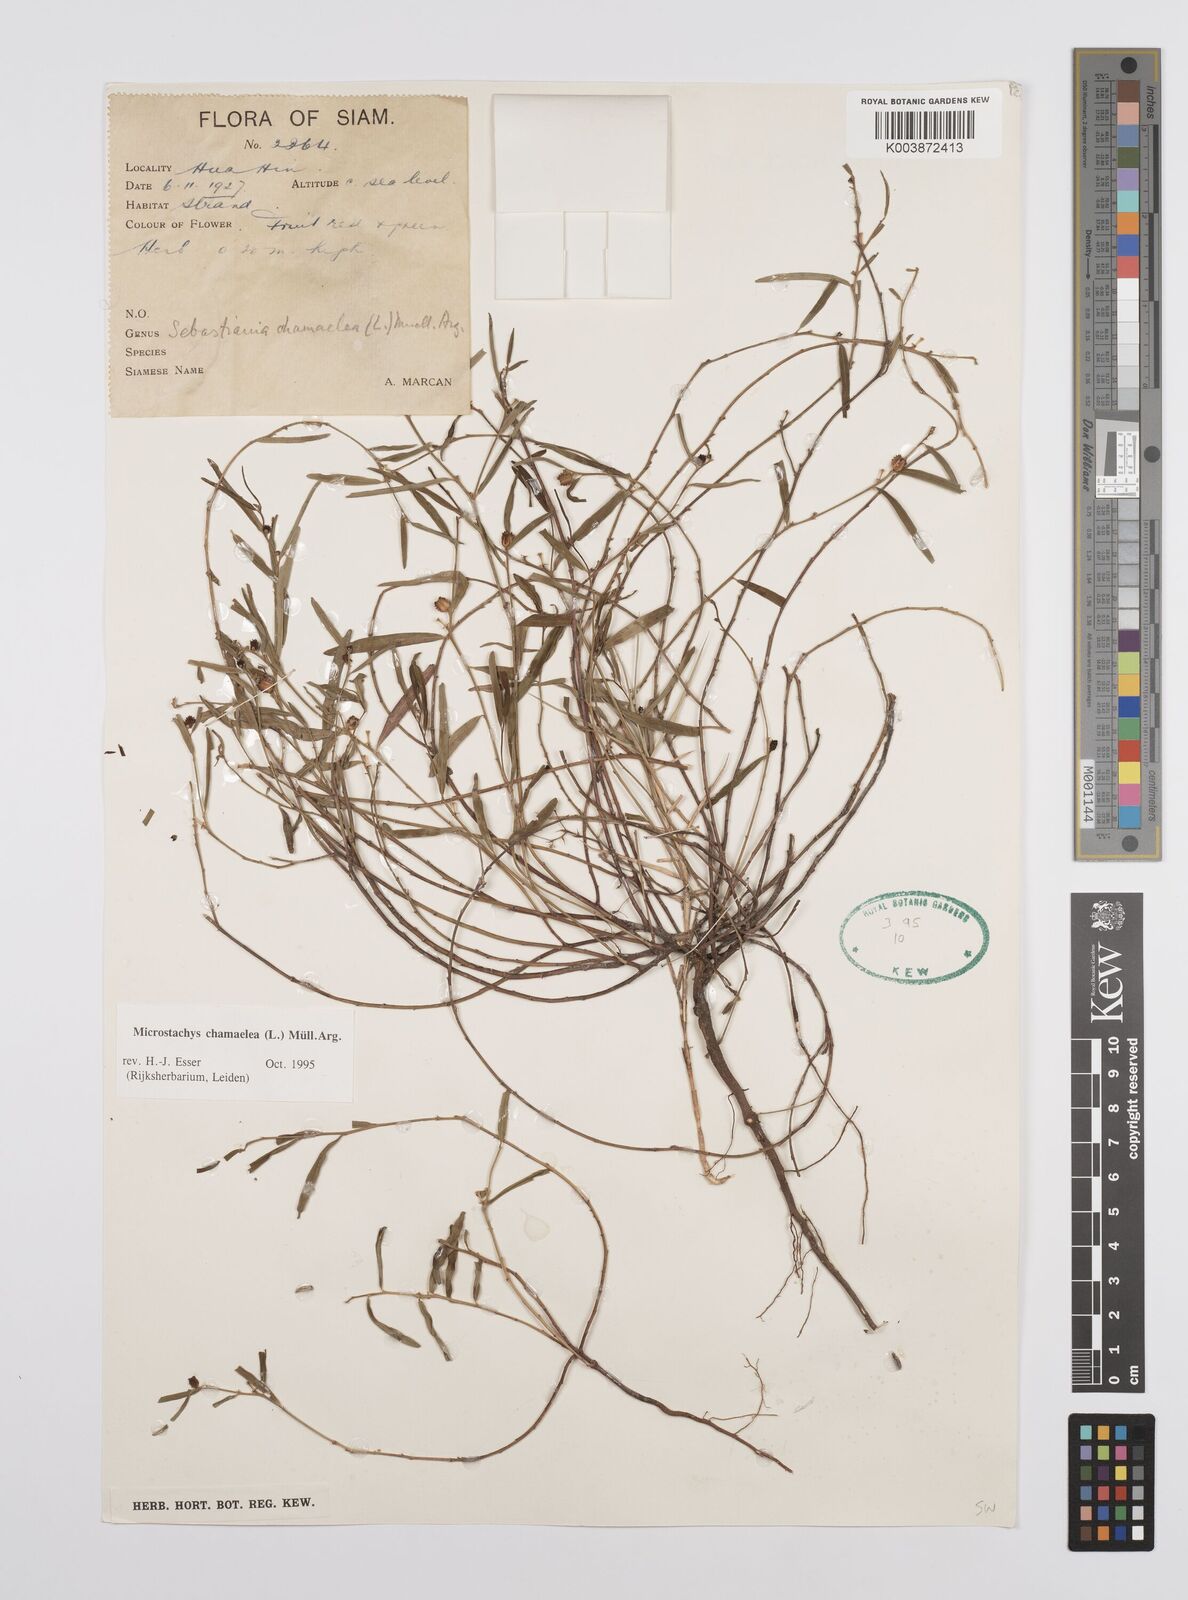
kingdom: Plantae
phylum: Tracheophyta
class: Magnoliopsida
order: Malpighiales
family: Euphorbiaceae
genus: Microstachys
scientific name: Microstachys chamaelea
